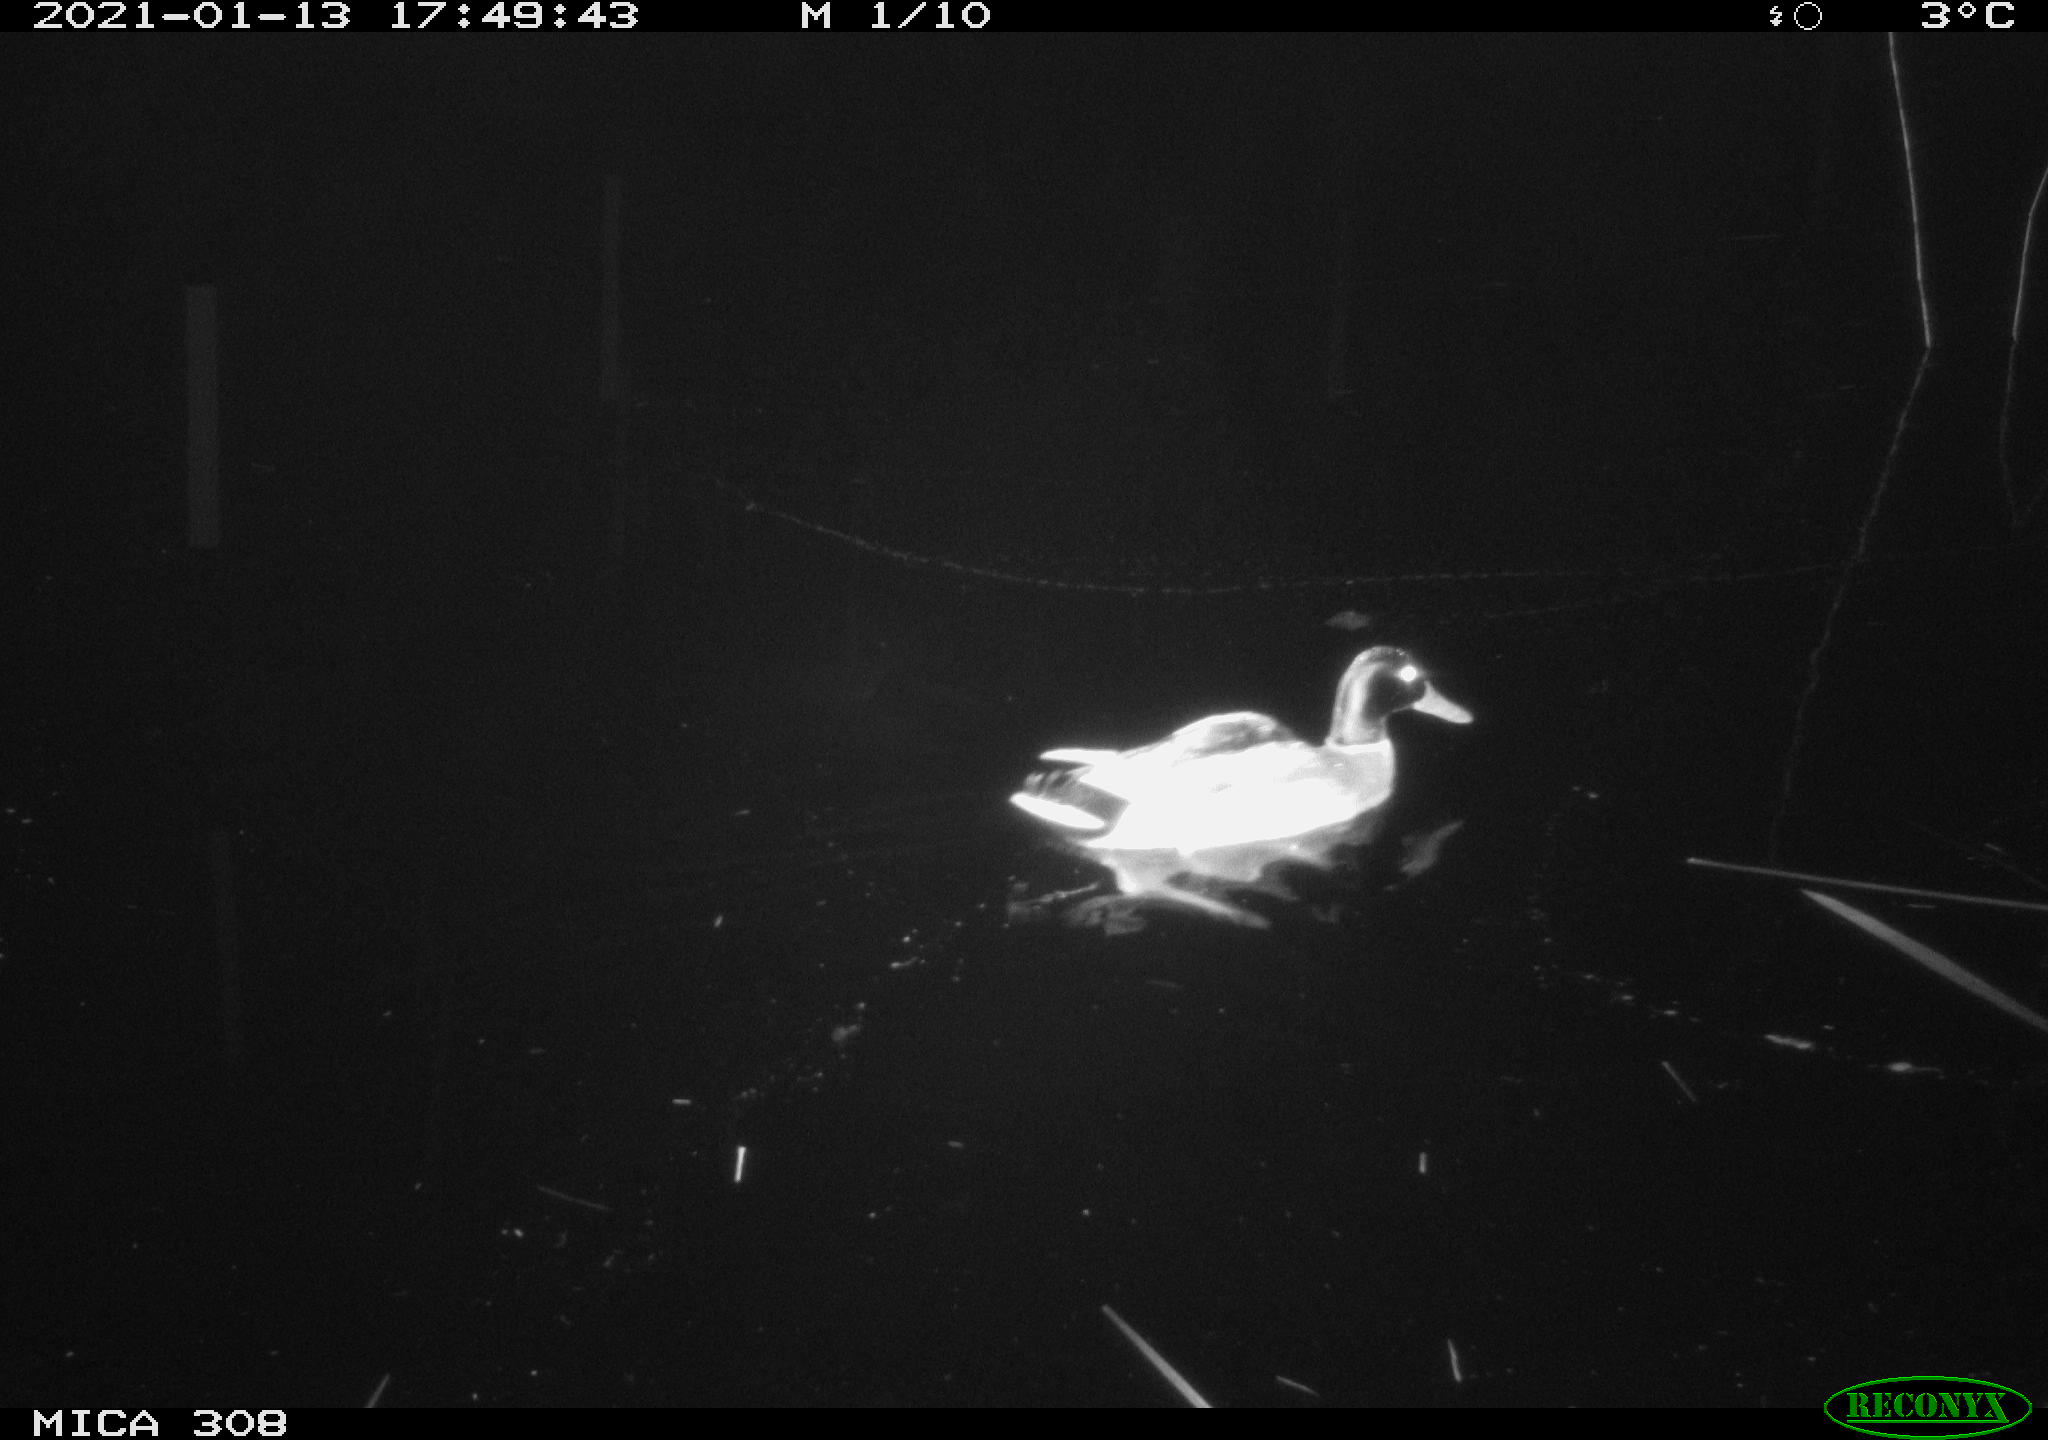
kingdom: Animalia
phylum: Chordata
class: Aves
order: Anseriformes
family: Anatidae
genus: Anas
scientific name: Anas platyrhynchos
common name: Mallard
